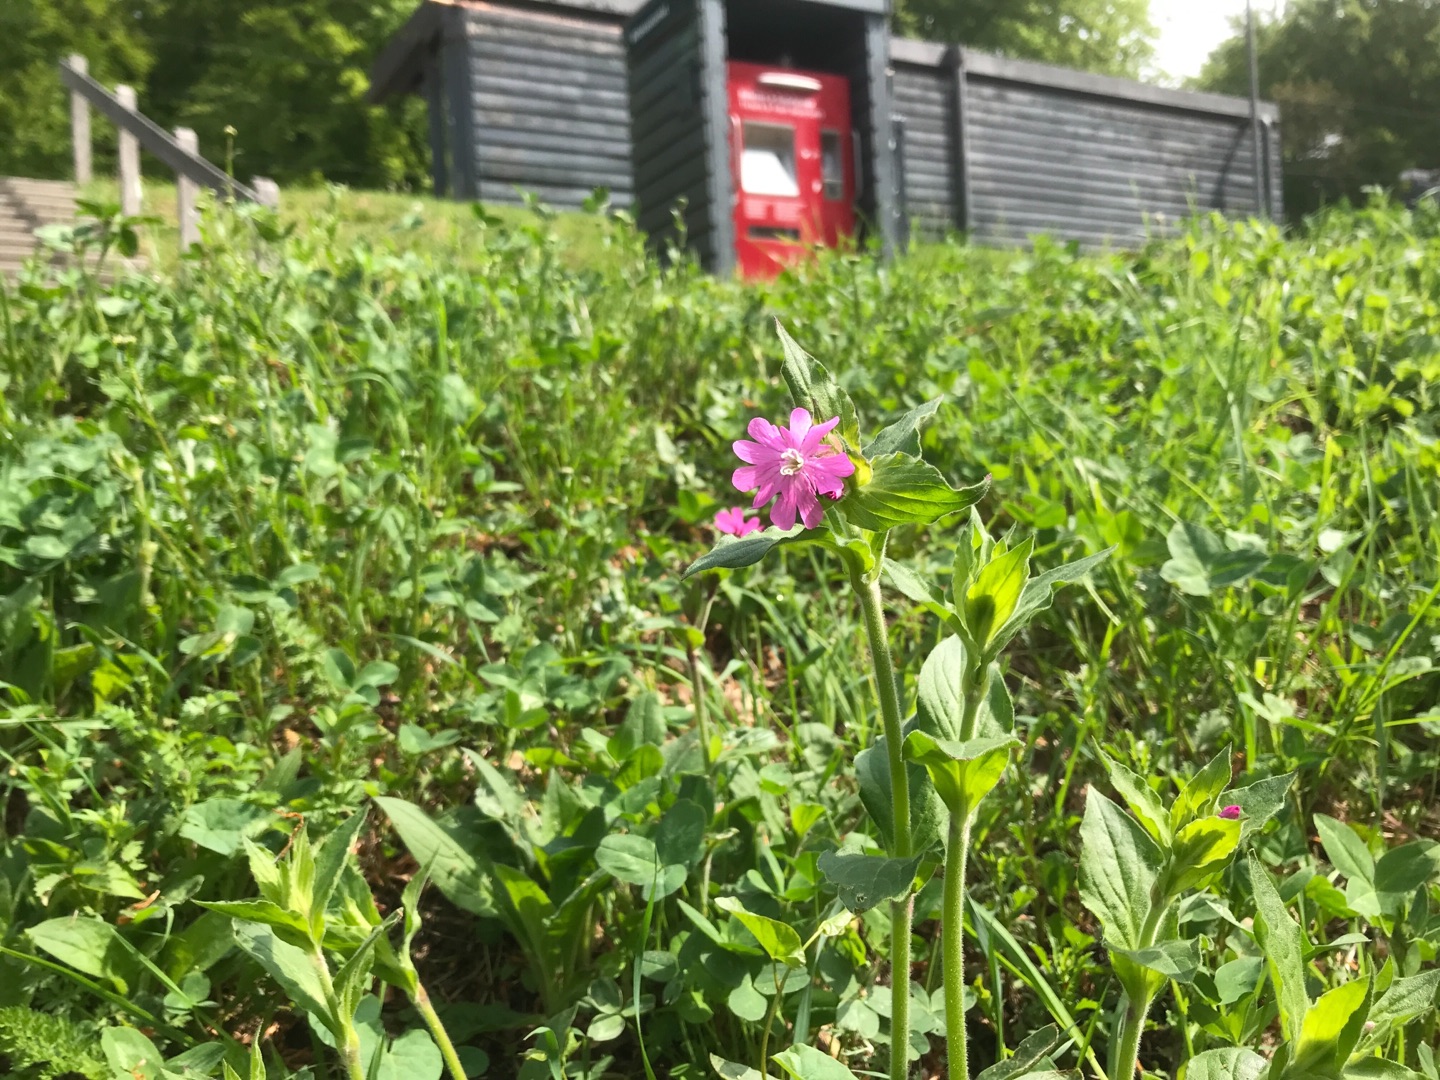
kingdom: Plantae
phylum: Tracheophyta
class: Magnoliopsida
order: Caryophyllales
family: Caryophyllaceae
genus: Silene
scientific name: Silene dioica
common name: Dagpragtstjerne
